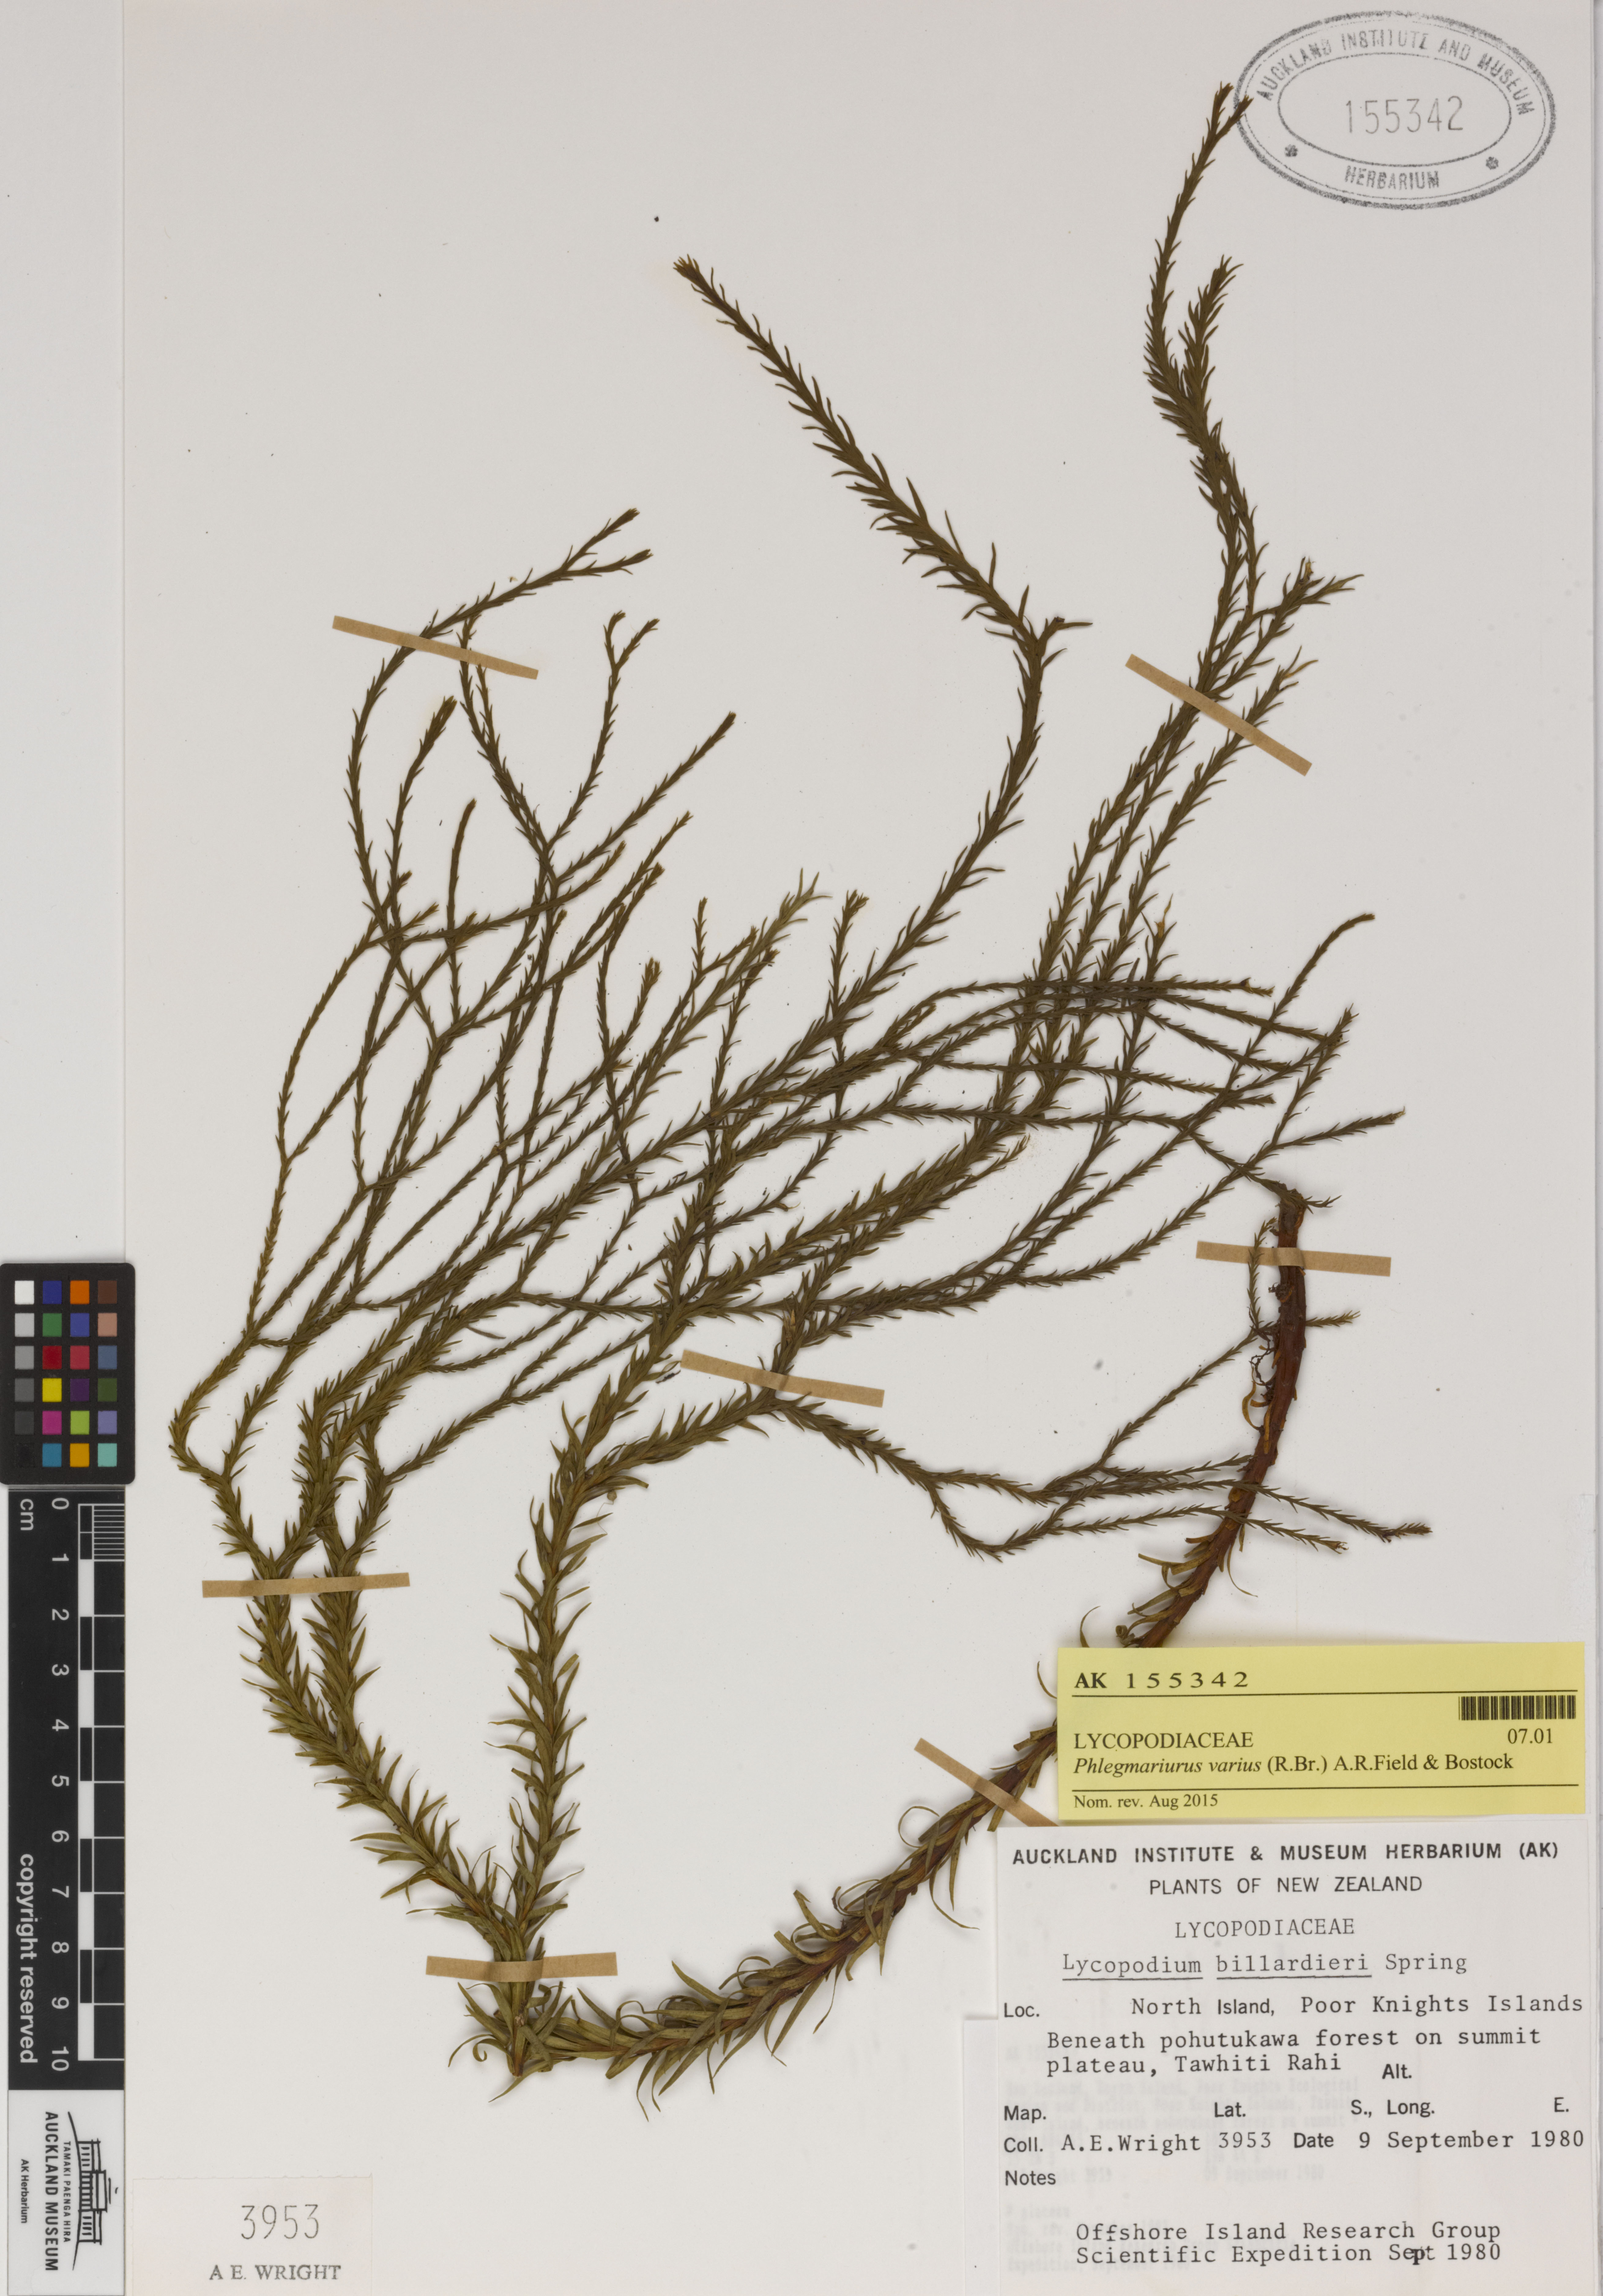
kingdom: Plantae
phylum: Tracheophyta
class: Lycopodiopsida
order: Lycopodiales
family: Lycopodiaceae
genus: Phlegmariurus
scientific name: Phlegmariurus billardierei
